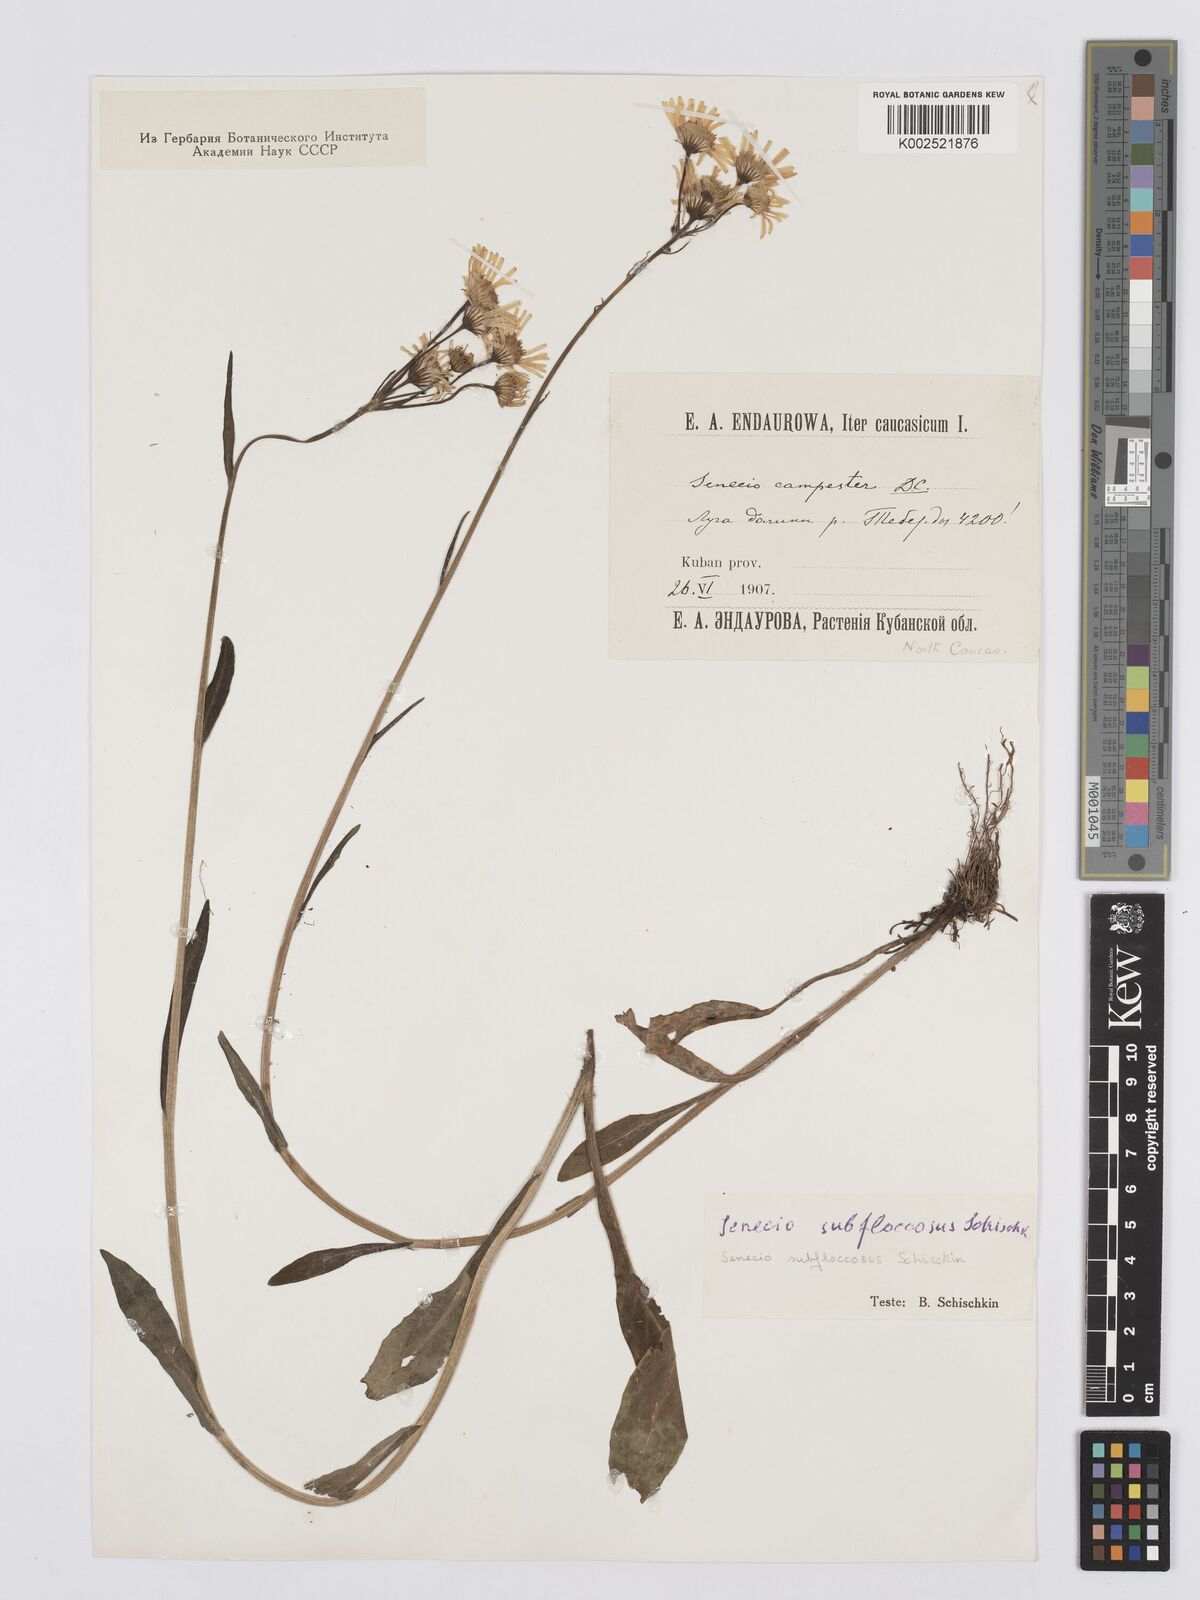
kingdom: Plantae
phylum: Tracheophyta
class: Magnoliopsida
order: Asterales
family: Asteraceae
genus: Tephroseris
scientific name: Tephroseris cladobotrys
